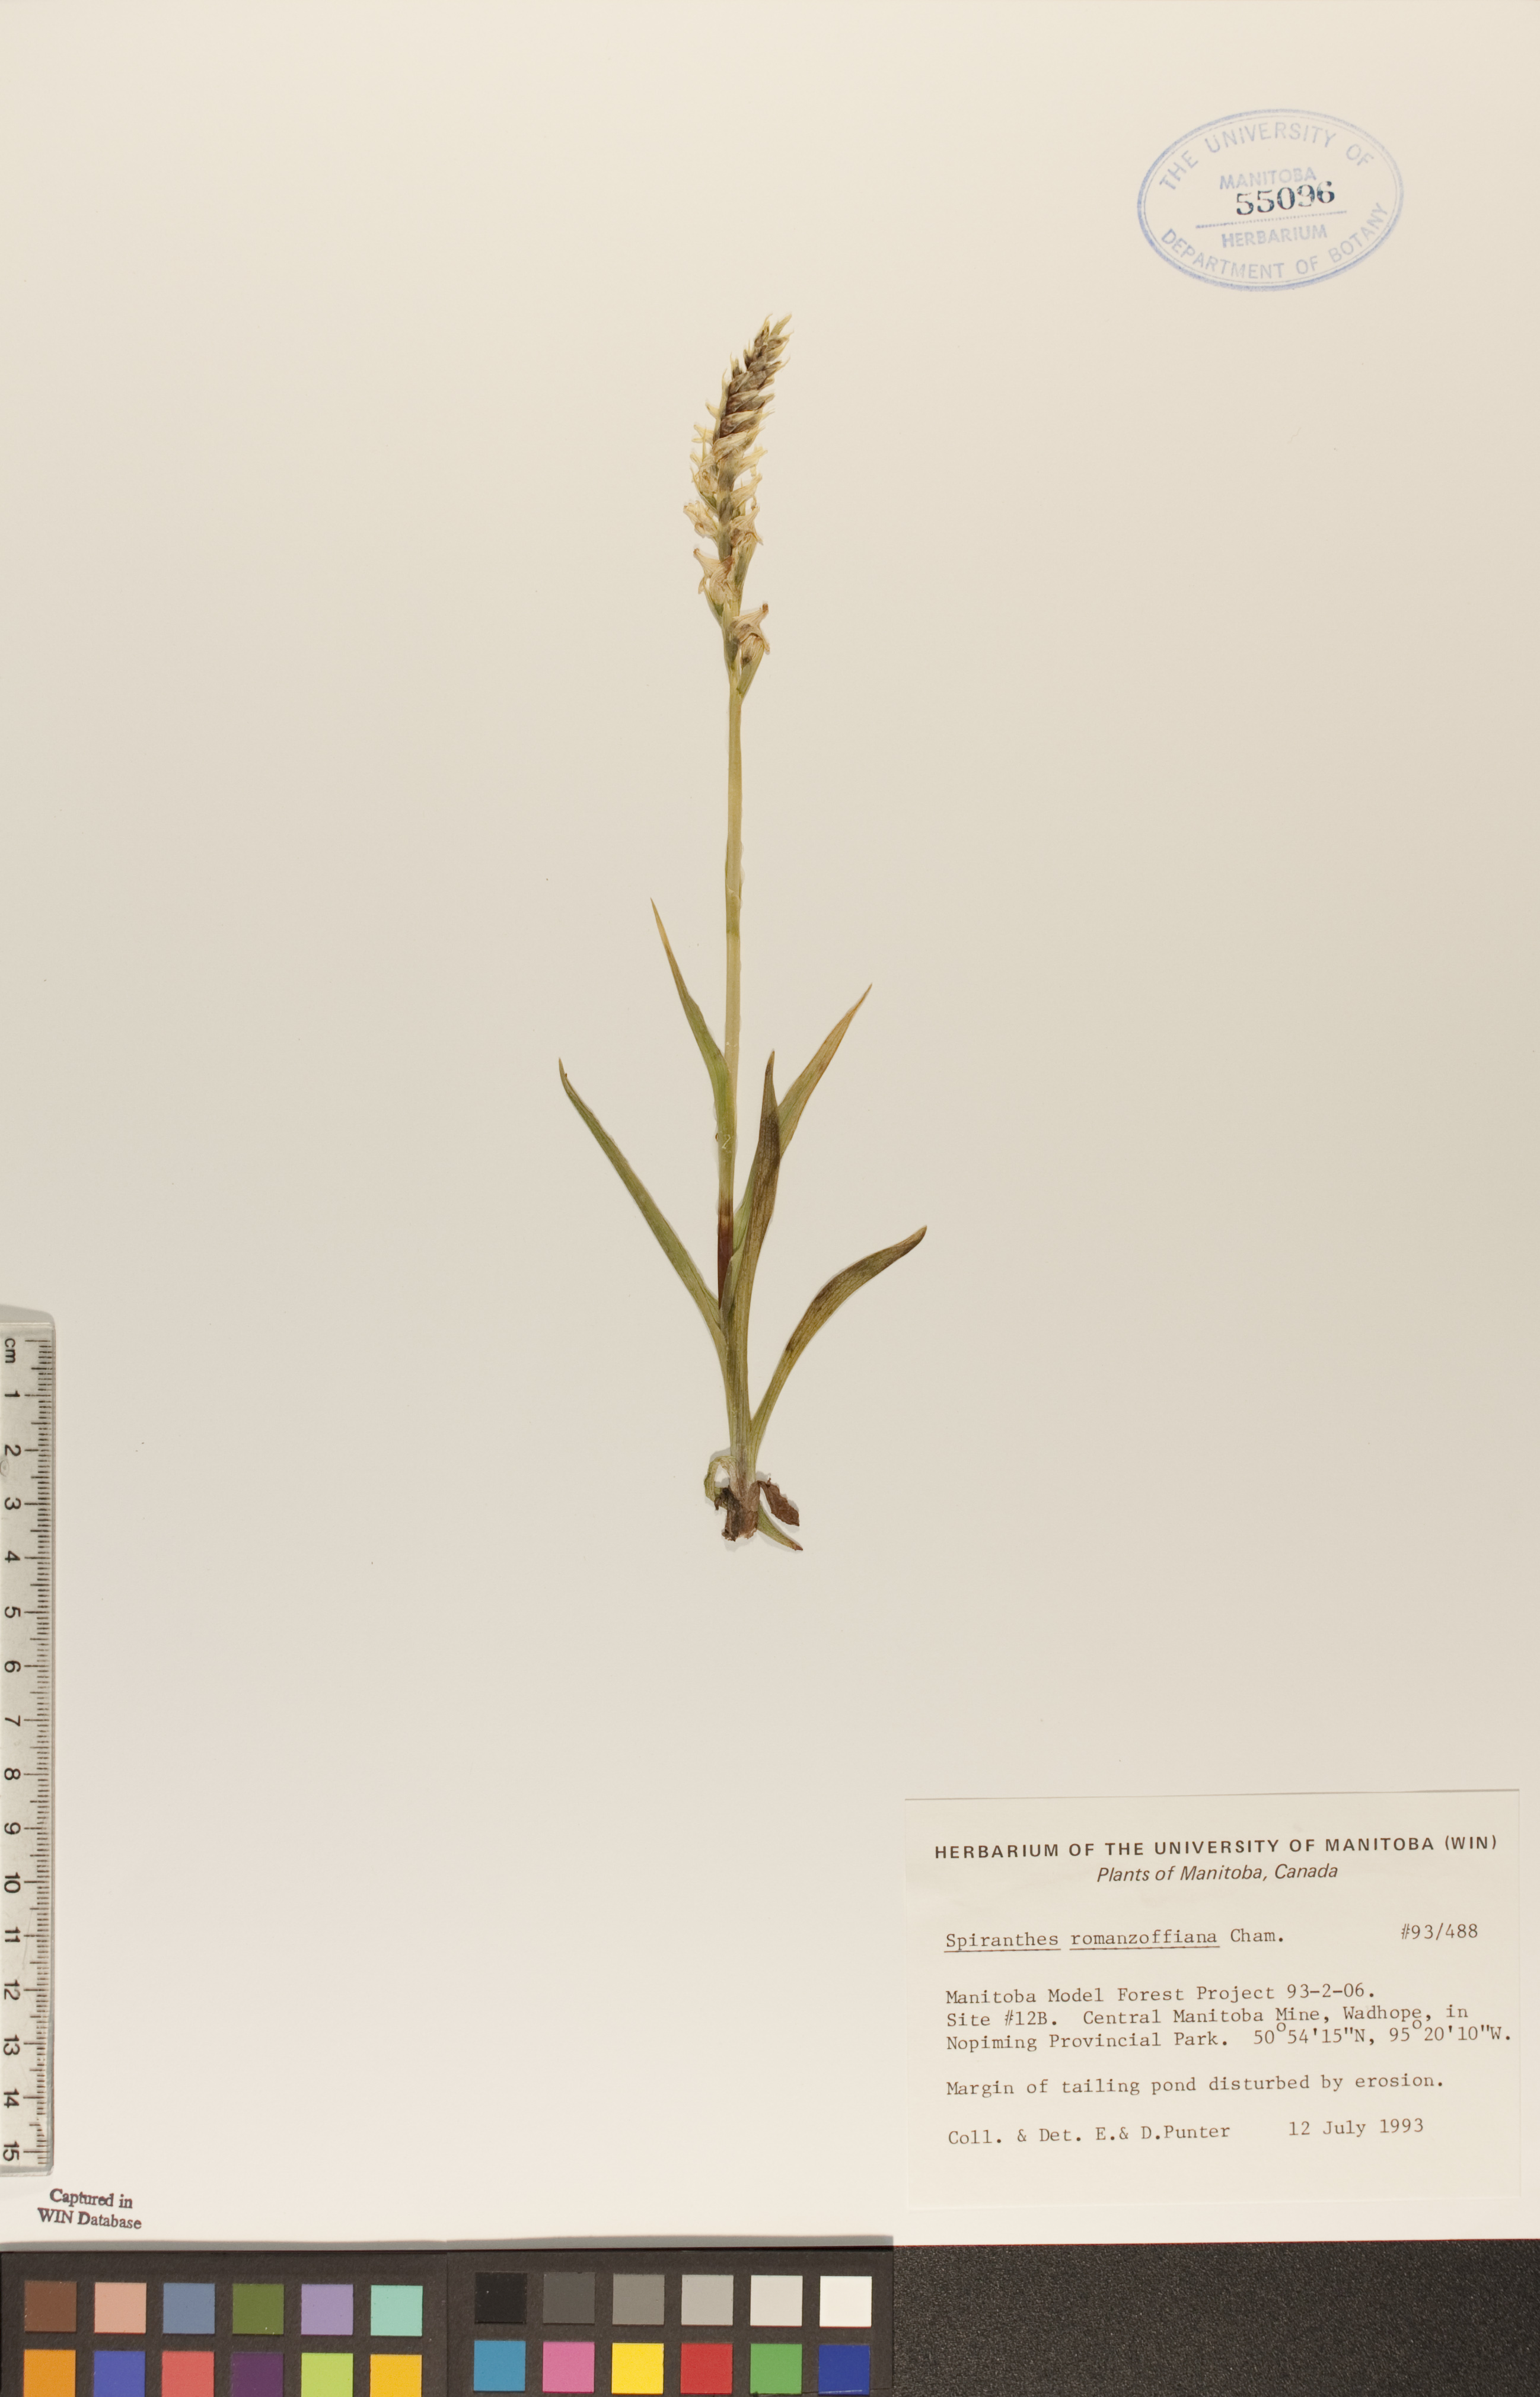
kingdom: Plantae
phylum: Tracheophyta
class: Liliopsida
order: Asparagales
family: Orchidaceae
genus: Spiranthes
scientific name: Spiranthes romanzoffiana
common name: Irish lady's-tresses
